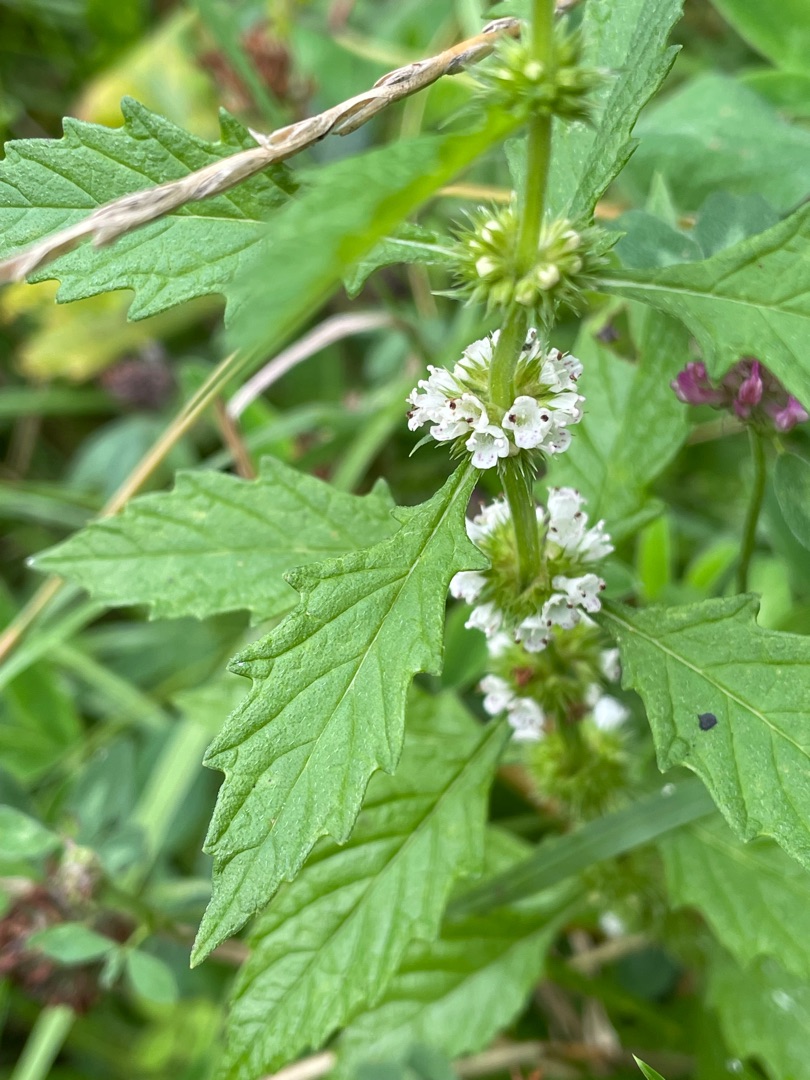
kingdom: Plantae
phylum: Tracheophyta
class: Magnoliopsida
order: Lamiales
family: Lamiaceae
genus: Lycopus
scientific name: Lycopus europaeus
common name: Sværtevæld
